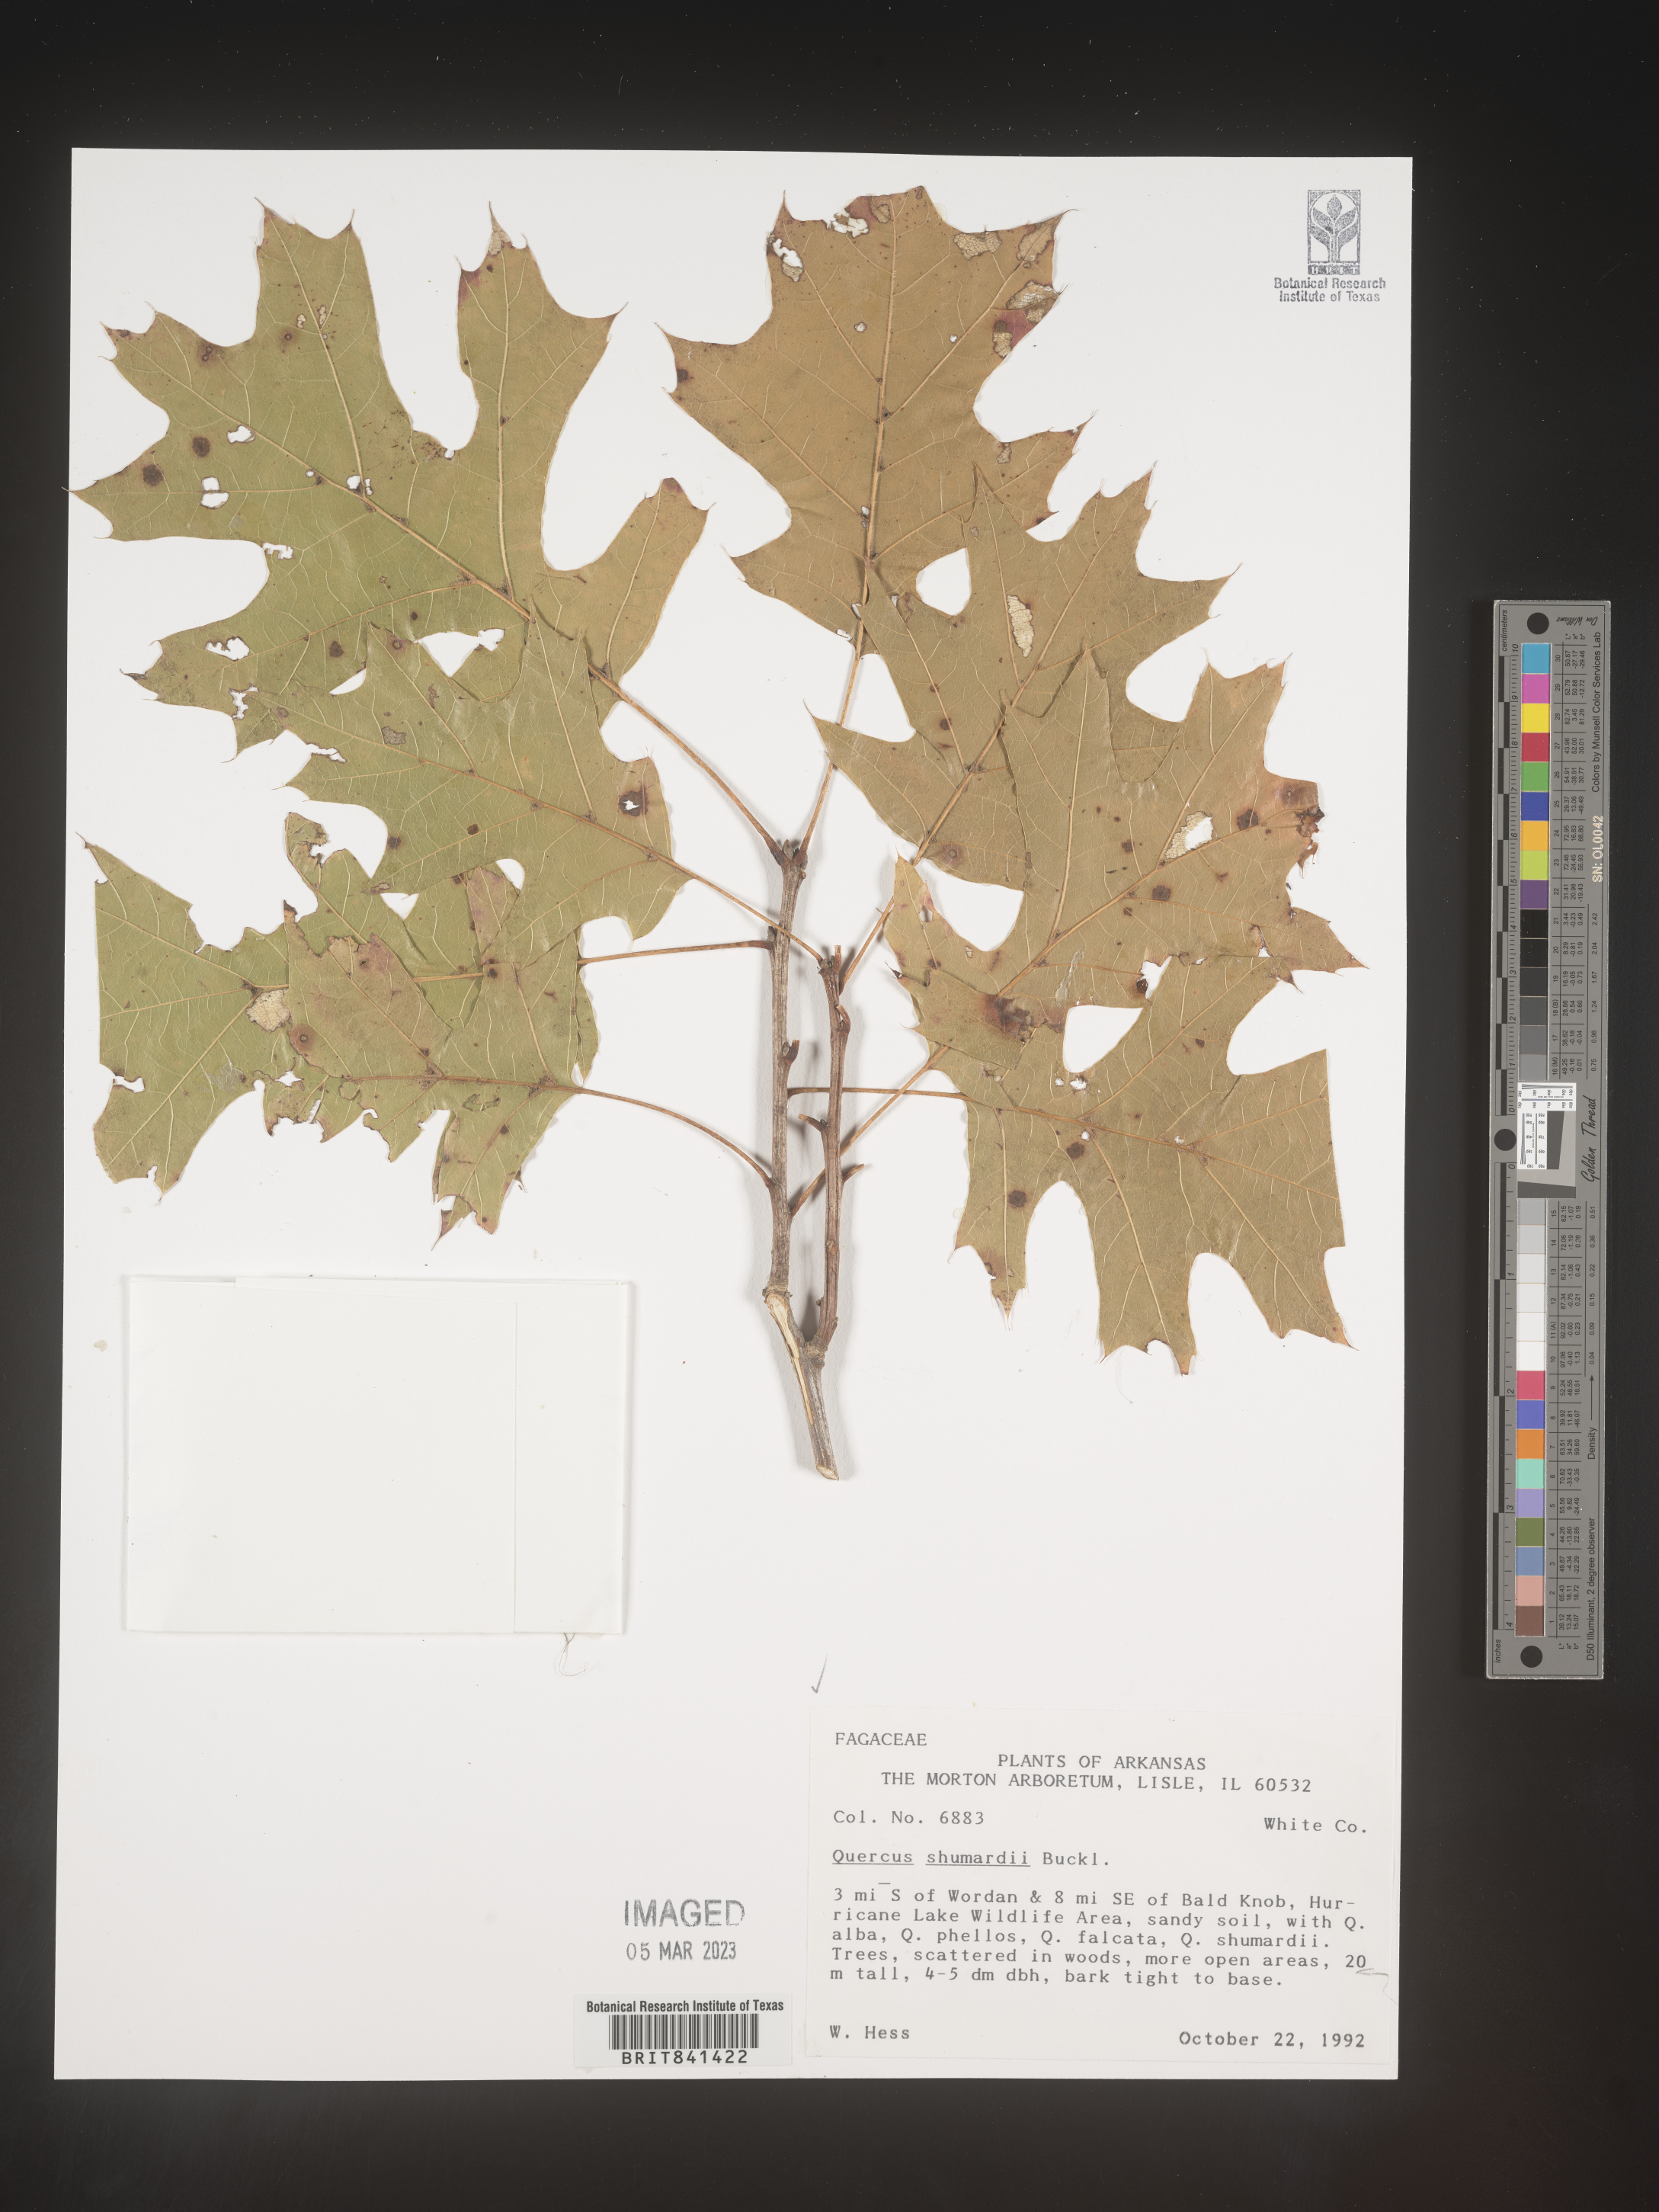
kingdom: Plantae
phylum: Tracheophyta
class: Magnoliopsida
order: Fagales
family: Fagaceae
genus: Quercus
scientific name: Quercus shumardii
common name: Shumard oak
